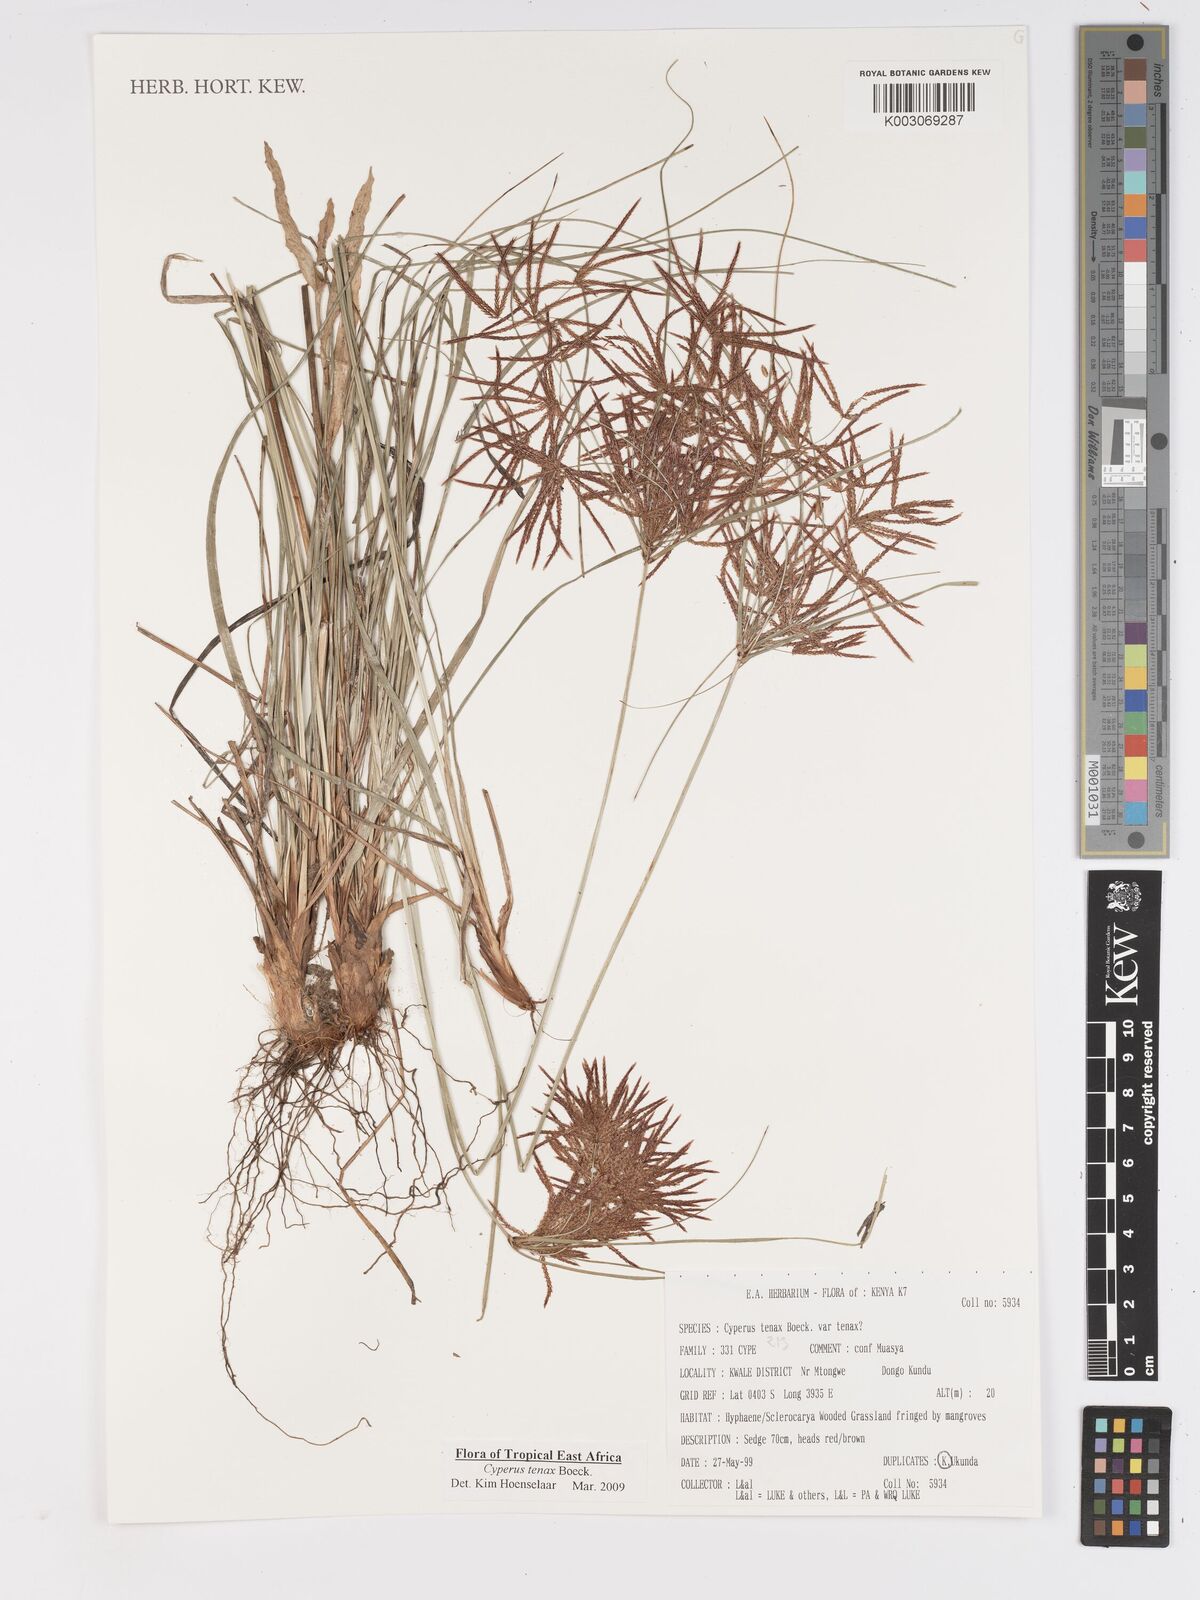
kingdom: Plantae
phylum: Tracheophyta
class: Liliopsida
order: Poales
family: Cyperaceae
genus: Cyperus
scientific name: Cyperus tenax
